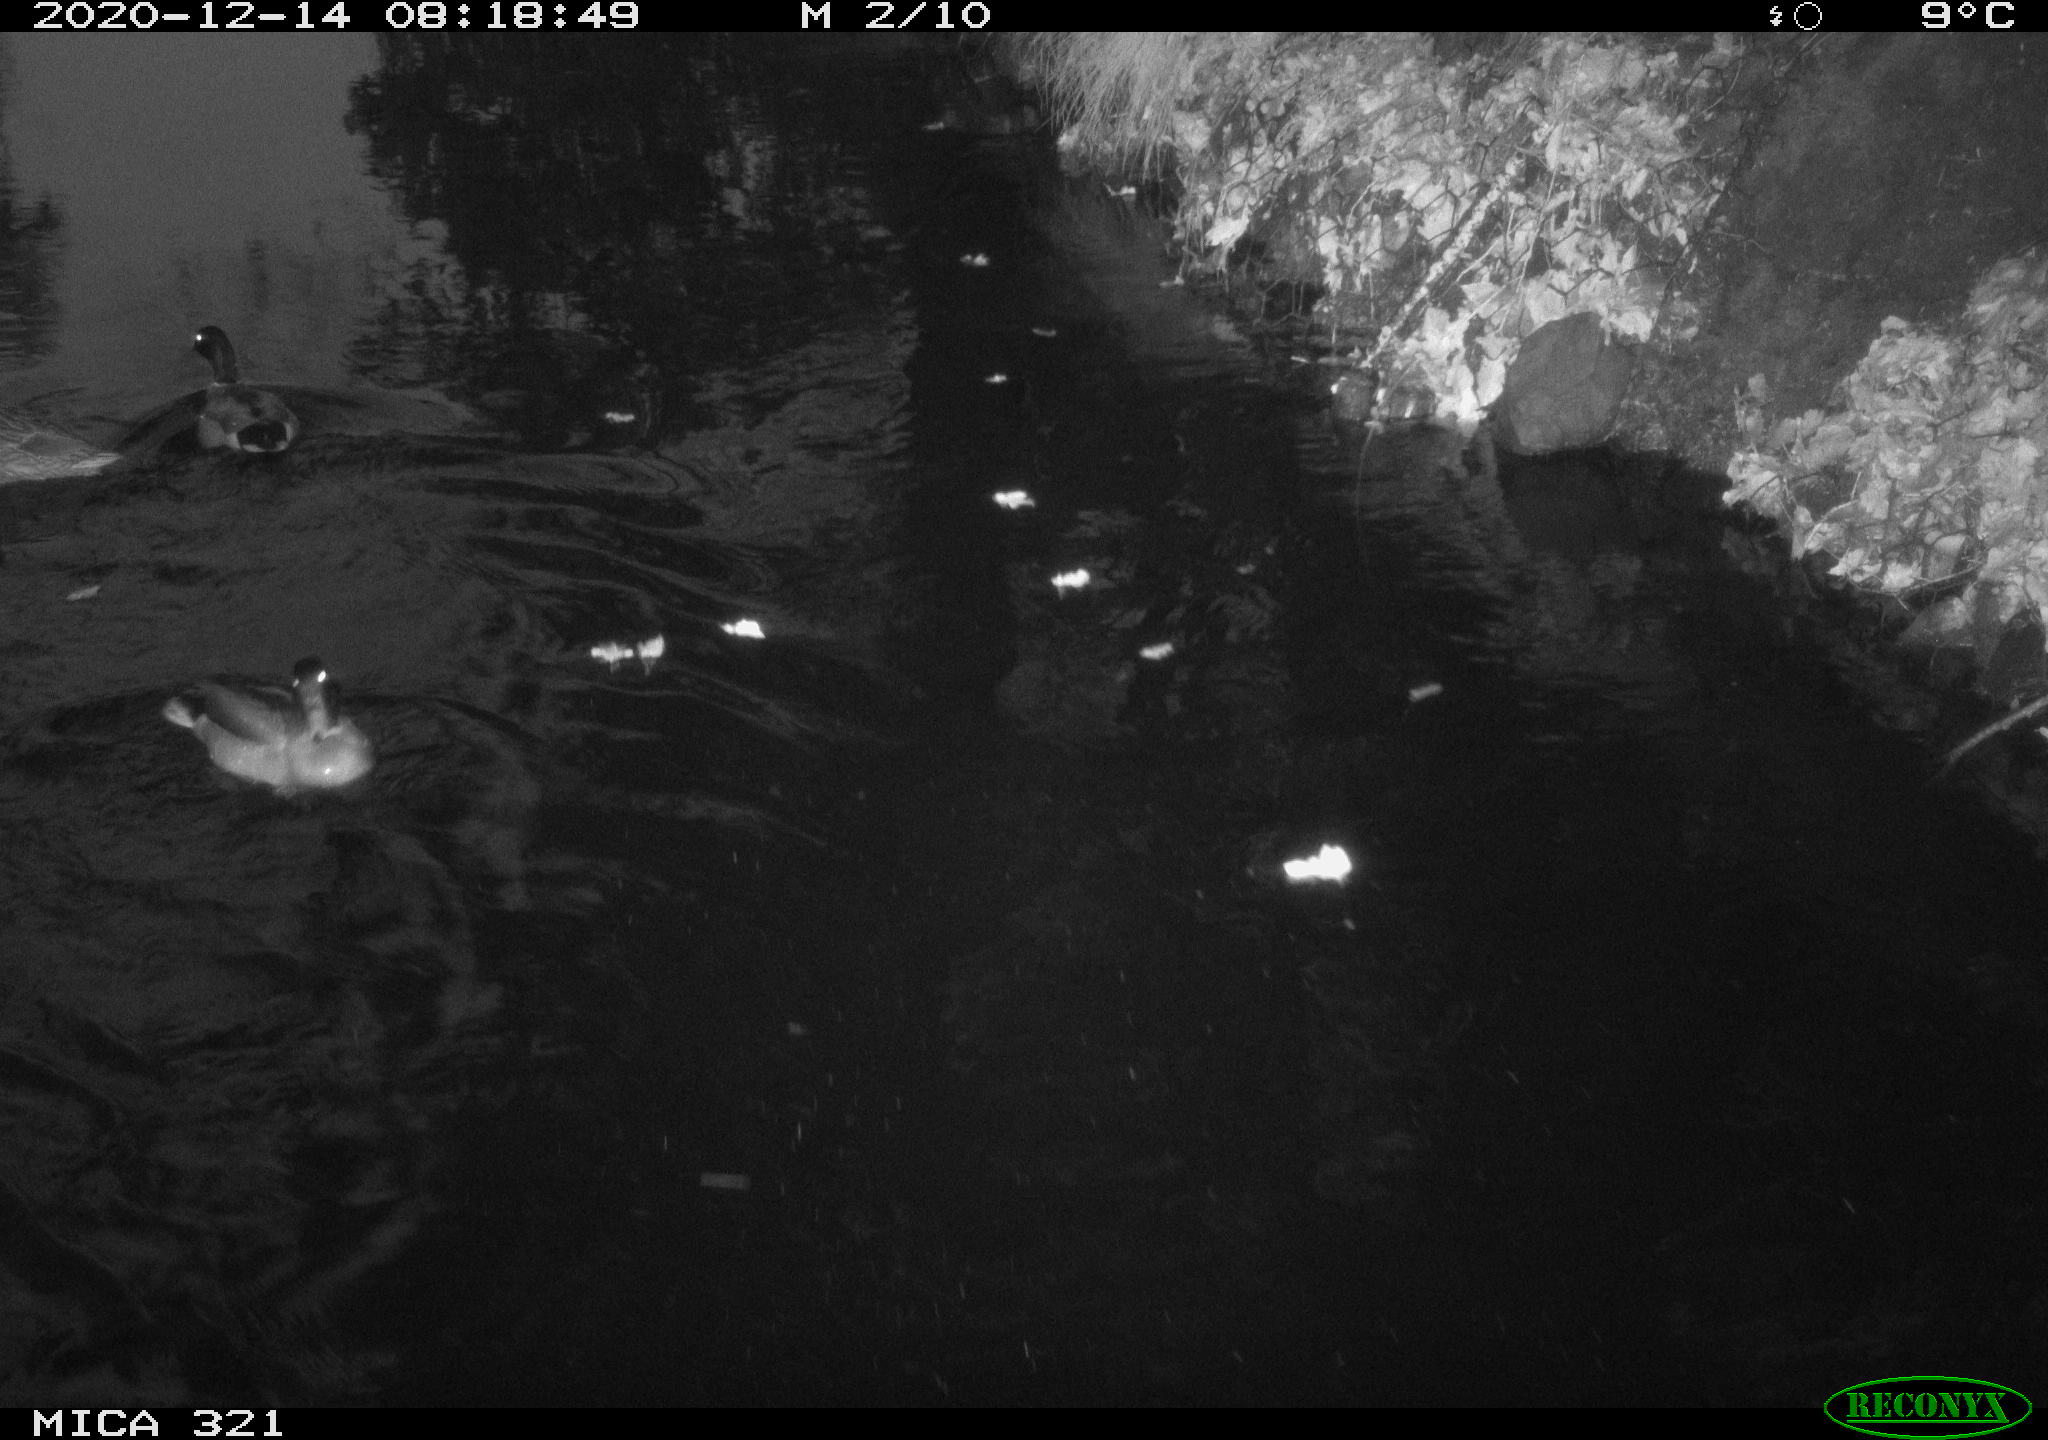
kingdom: Animalia
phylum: Chordata
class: Aves
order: Anseriformes
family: Anatidae
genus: Anas
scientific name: Anas platyrhynchos
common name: Mallard
